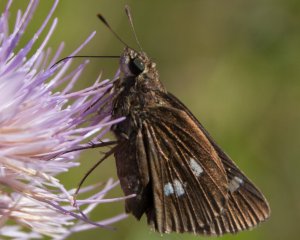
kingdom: Animalia
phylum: Arthropoda
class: Insecta
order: Lepidoptera
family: Hesperiidae
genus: Oligoria
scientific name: Oligoria maculata
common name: Twin-spot Skipper
